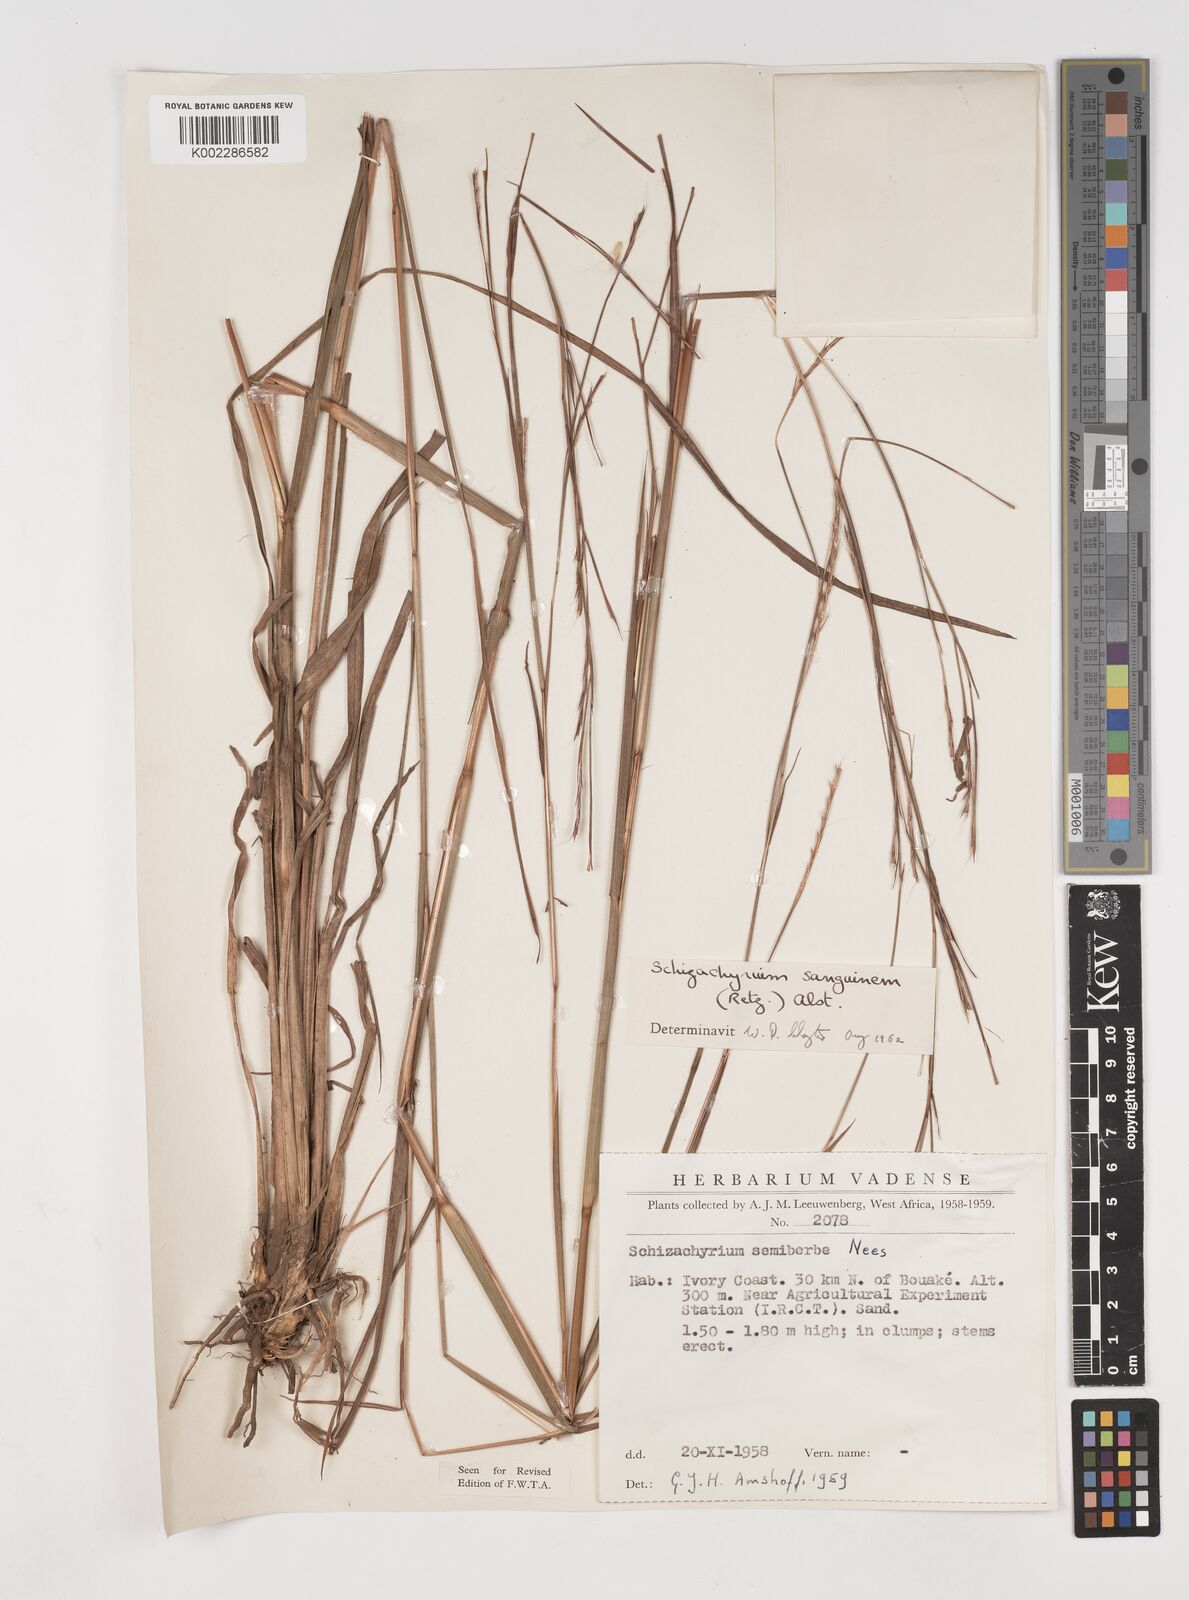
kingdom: Plantae
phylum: Tracheophyta
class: Liliopsida
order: Poales
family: Poaceae
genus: Schizachyrium
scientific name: Schizachyrium sanguineum
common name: Crimson bluestem
